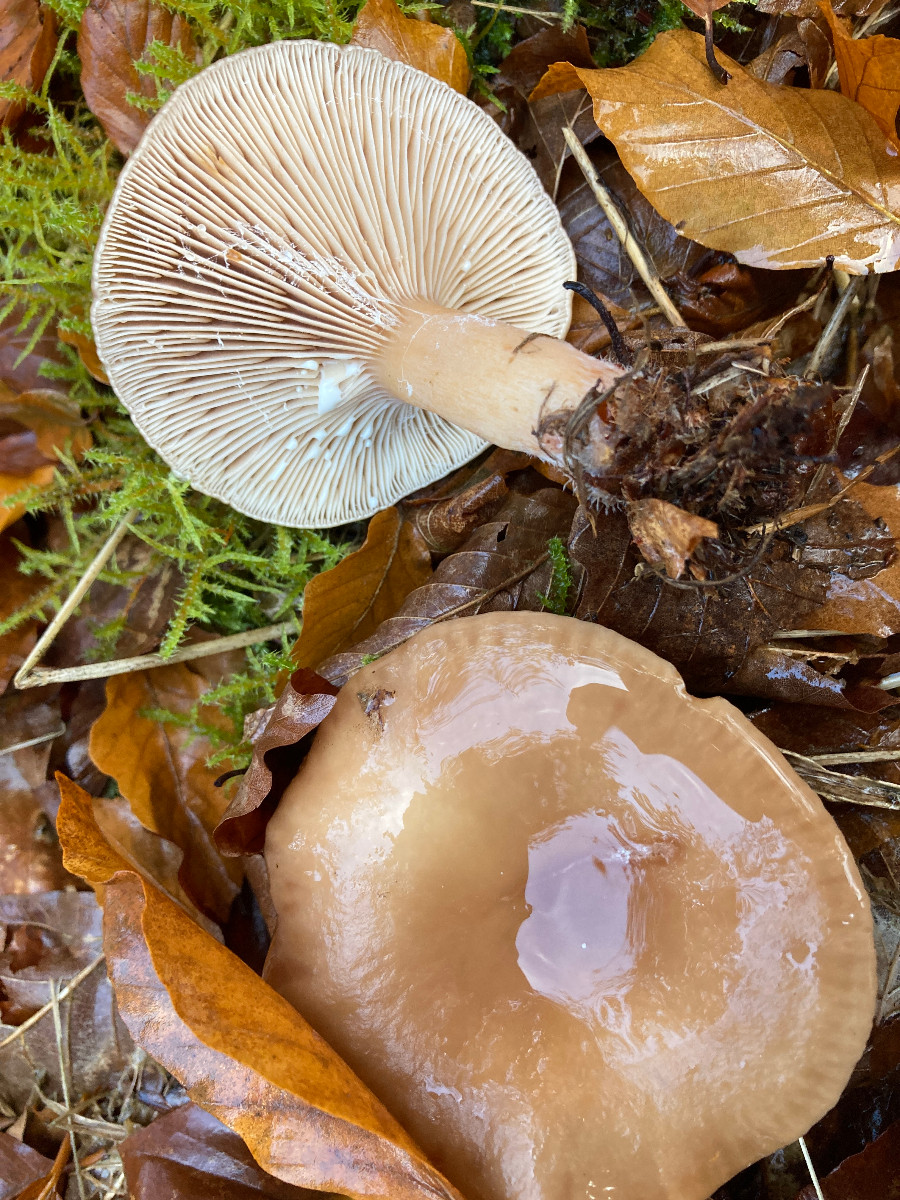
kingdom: Fungi
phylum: Basidiomycota
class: Agaricomycetes
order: Russulales
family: Russulaceae
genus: Lactarius
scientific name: Lactarius subdulcis
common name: sødlig mælkehat
